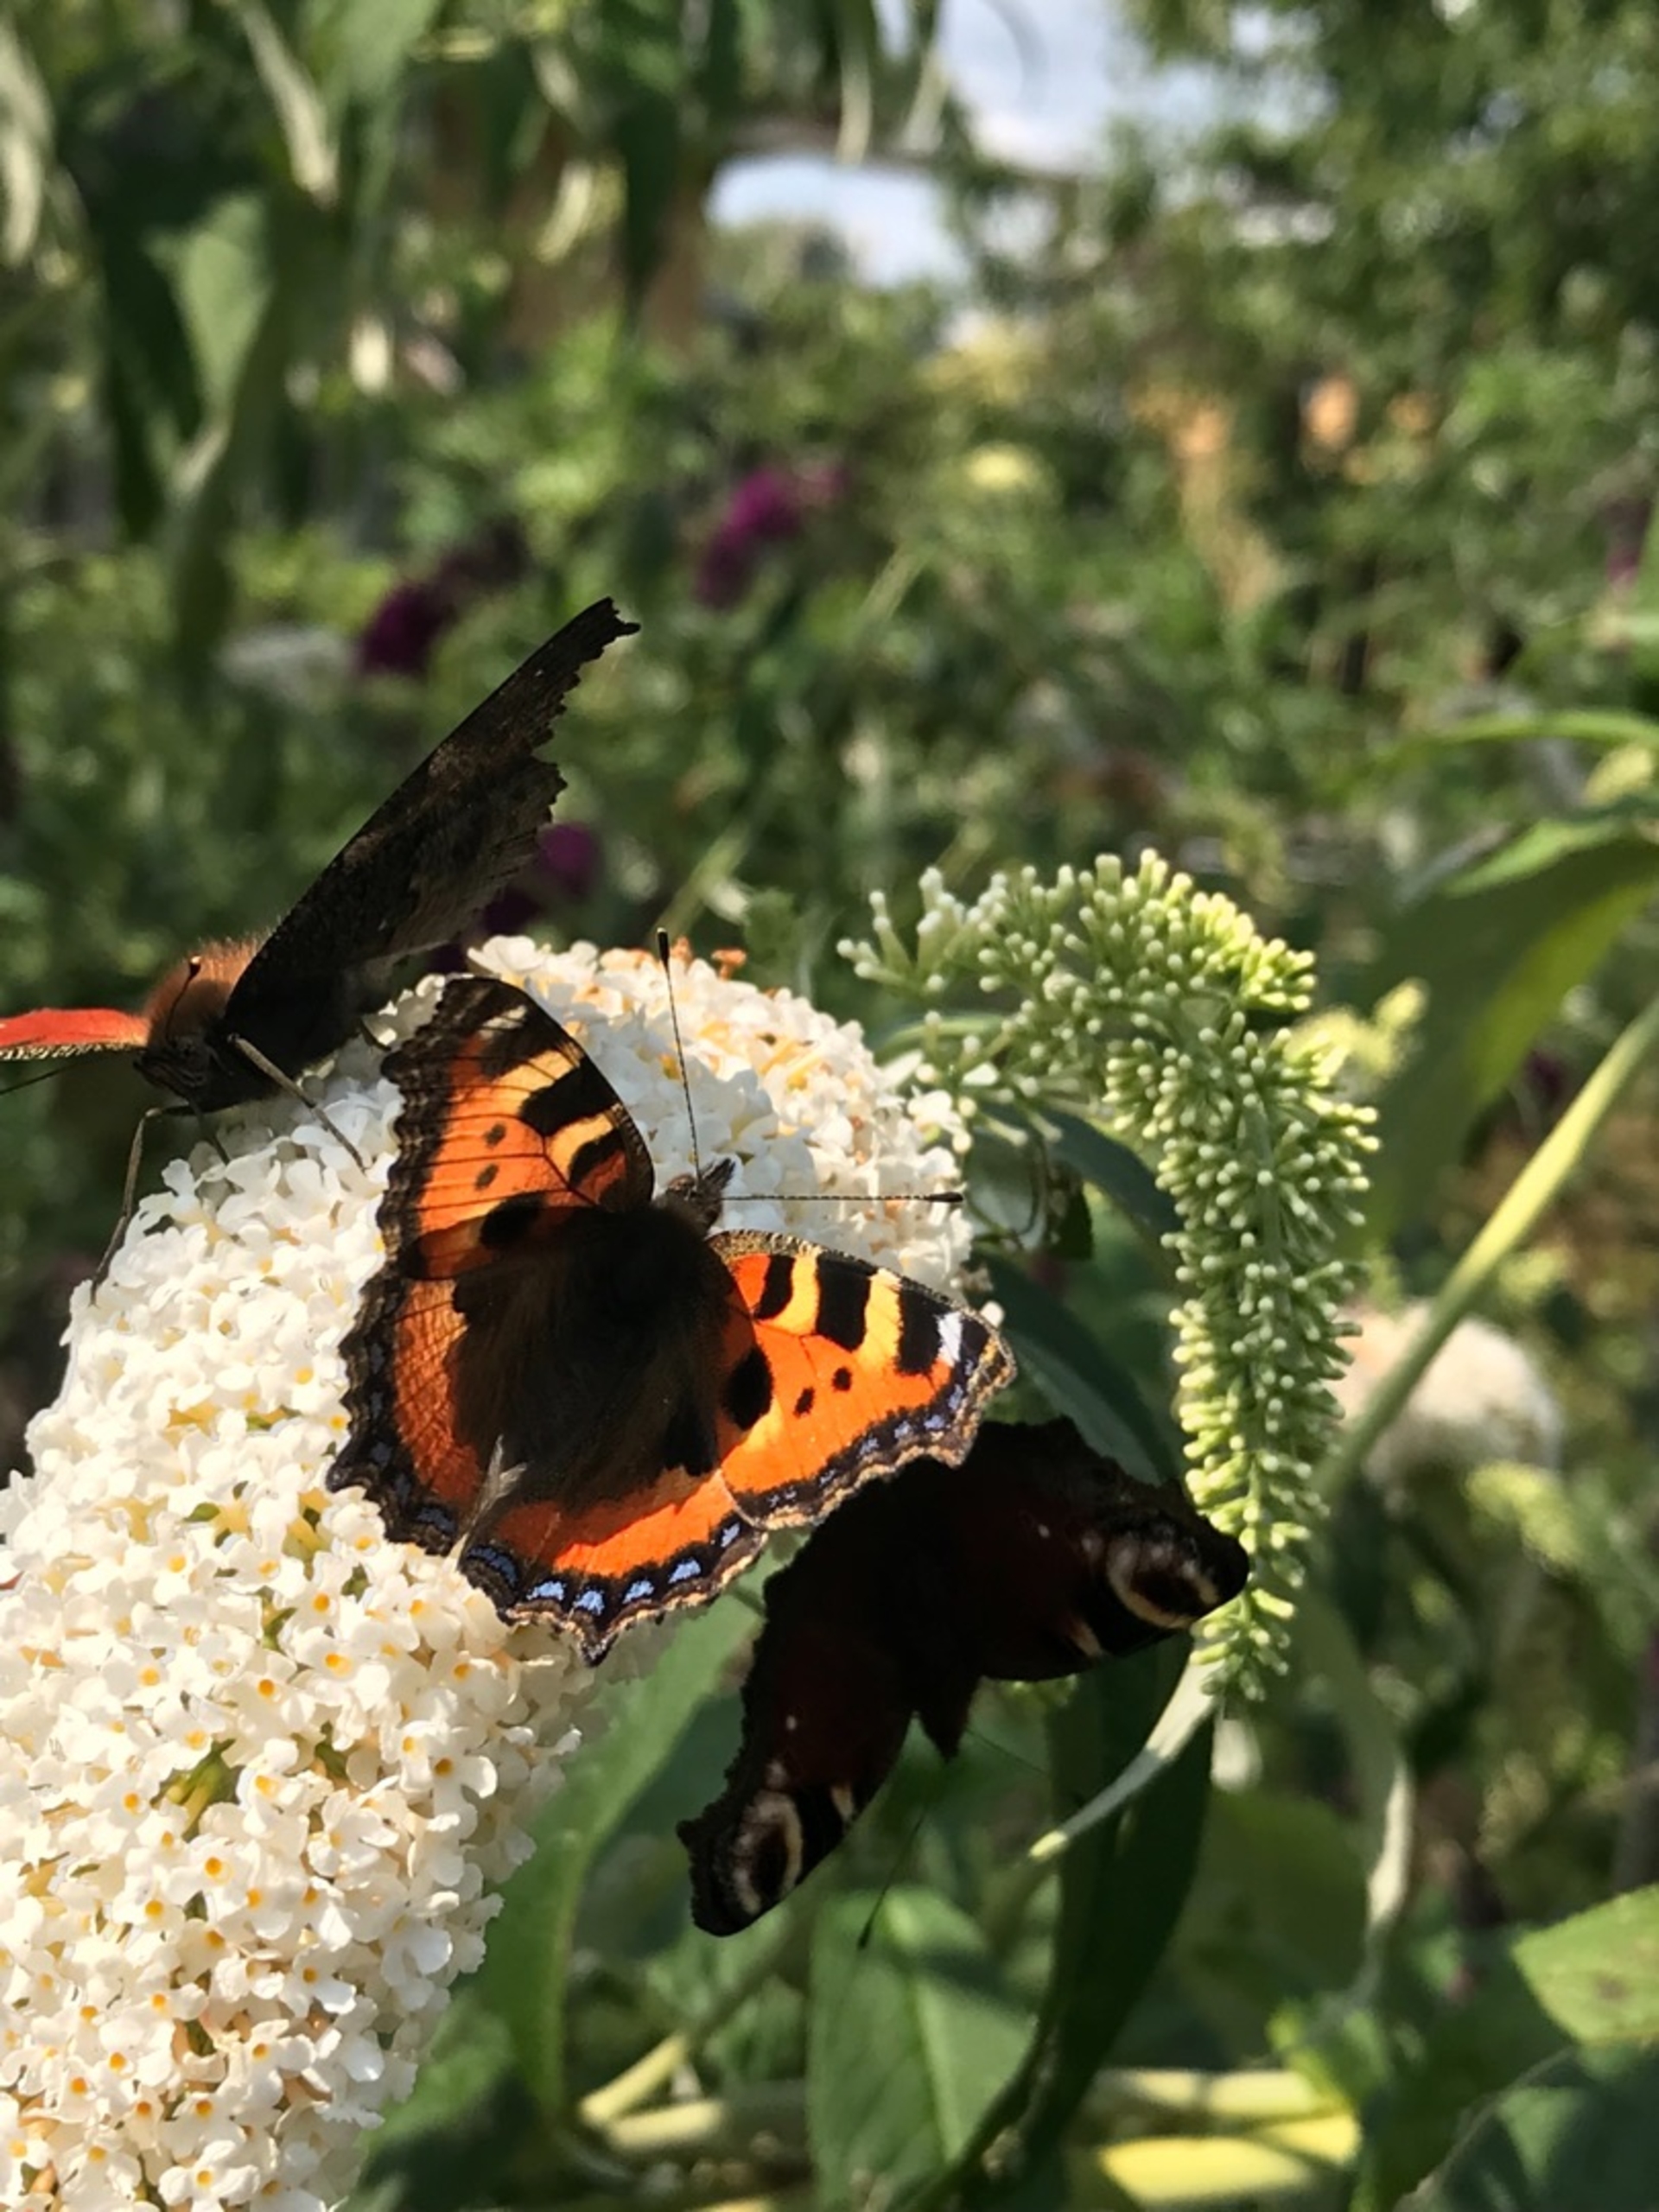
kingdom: Animalia
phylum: Arthropoda
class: Insecta
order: Lepidoptera
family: Nymphalidae
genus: Aglais
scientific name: Aglais urticae
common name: Nældens takvinge
